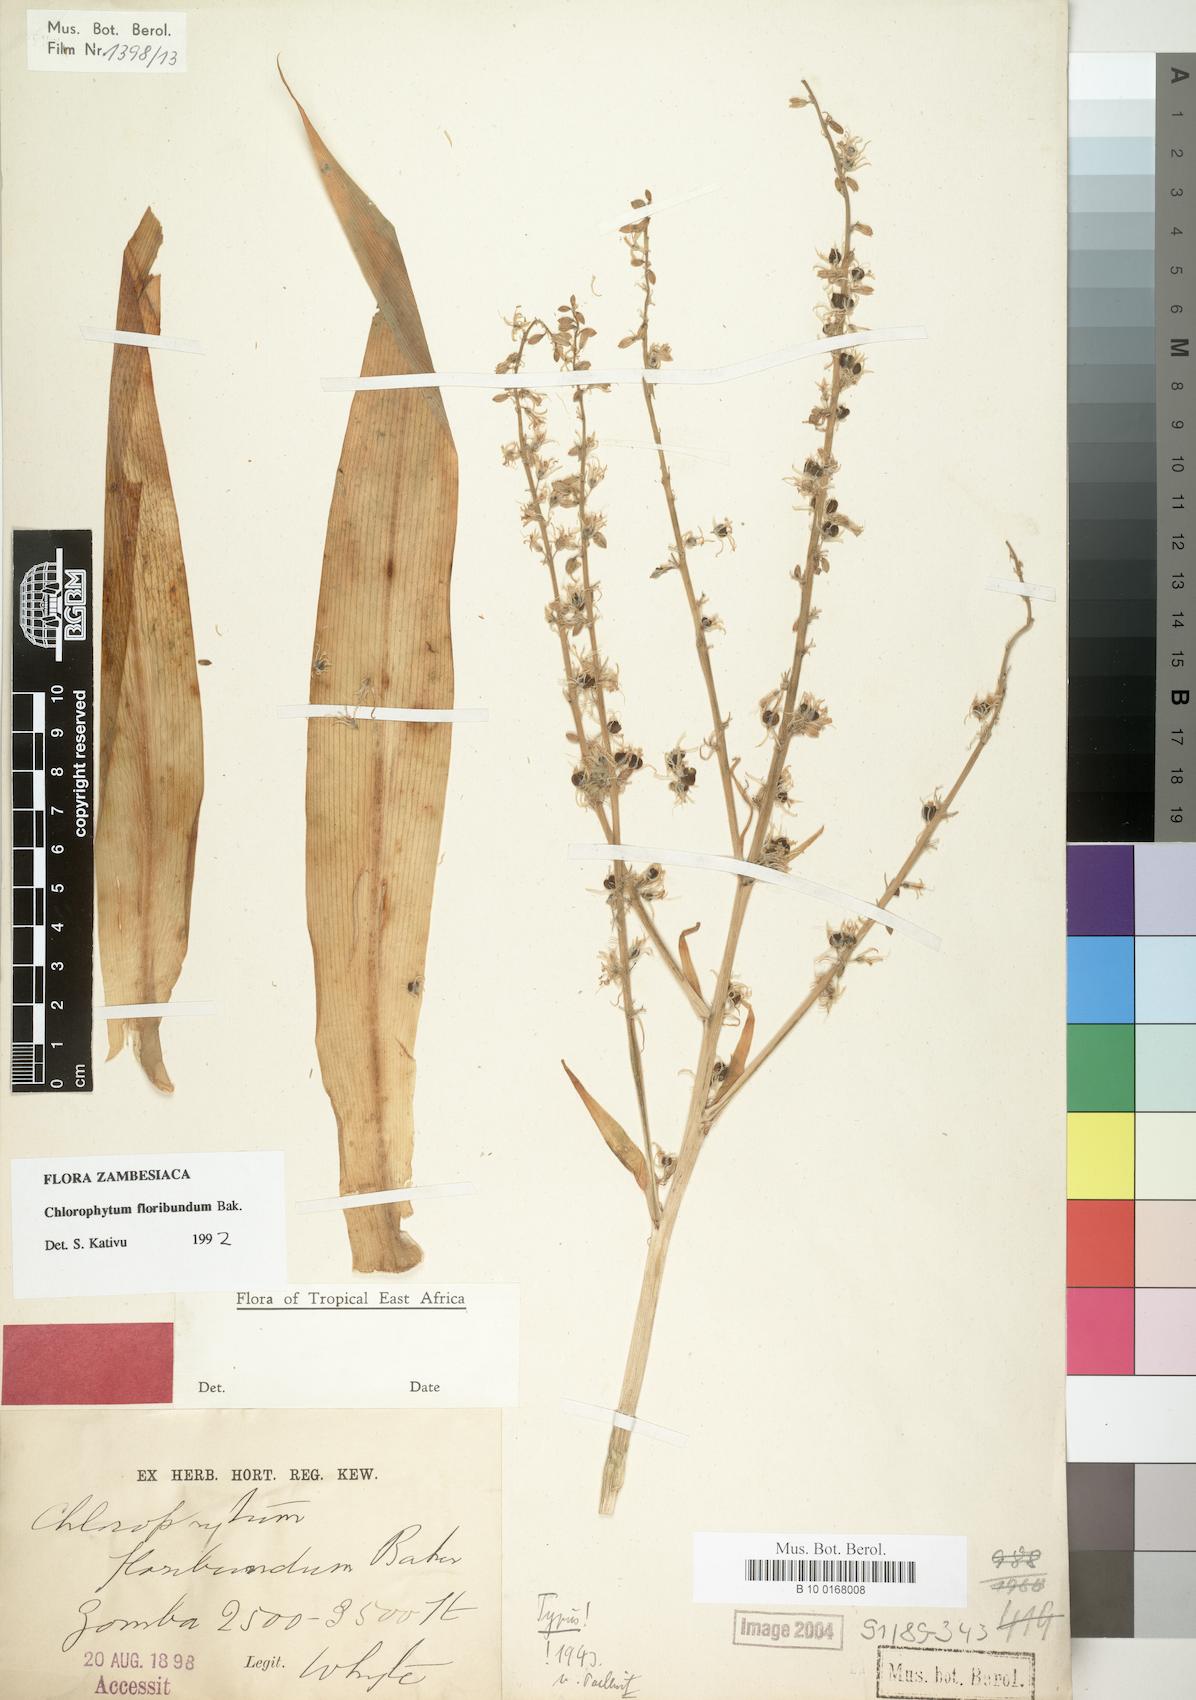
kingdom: Plantae
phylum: Tracheophyta
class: Liliopsida
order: Asparagales
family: Asparagaceae
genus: Chlorophytum
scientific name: Chlorophytum gallabatense
